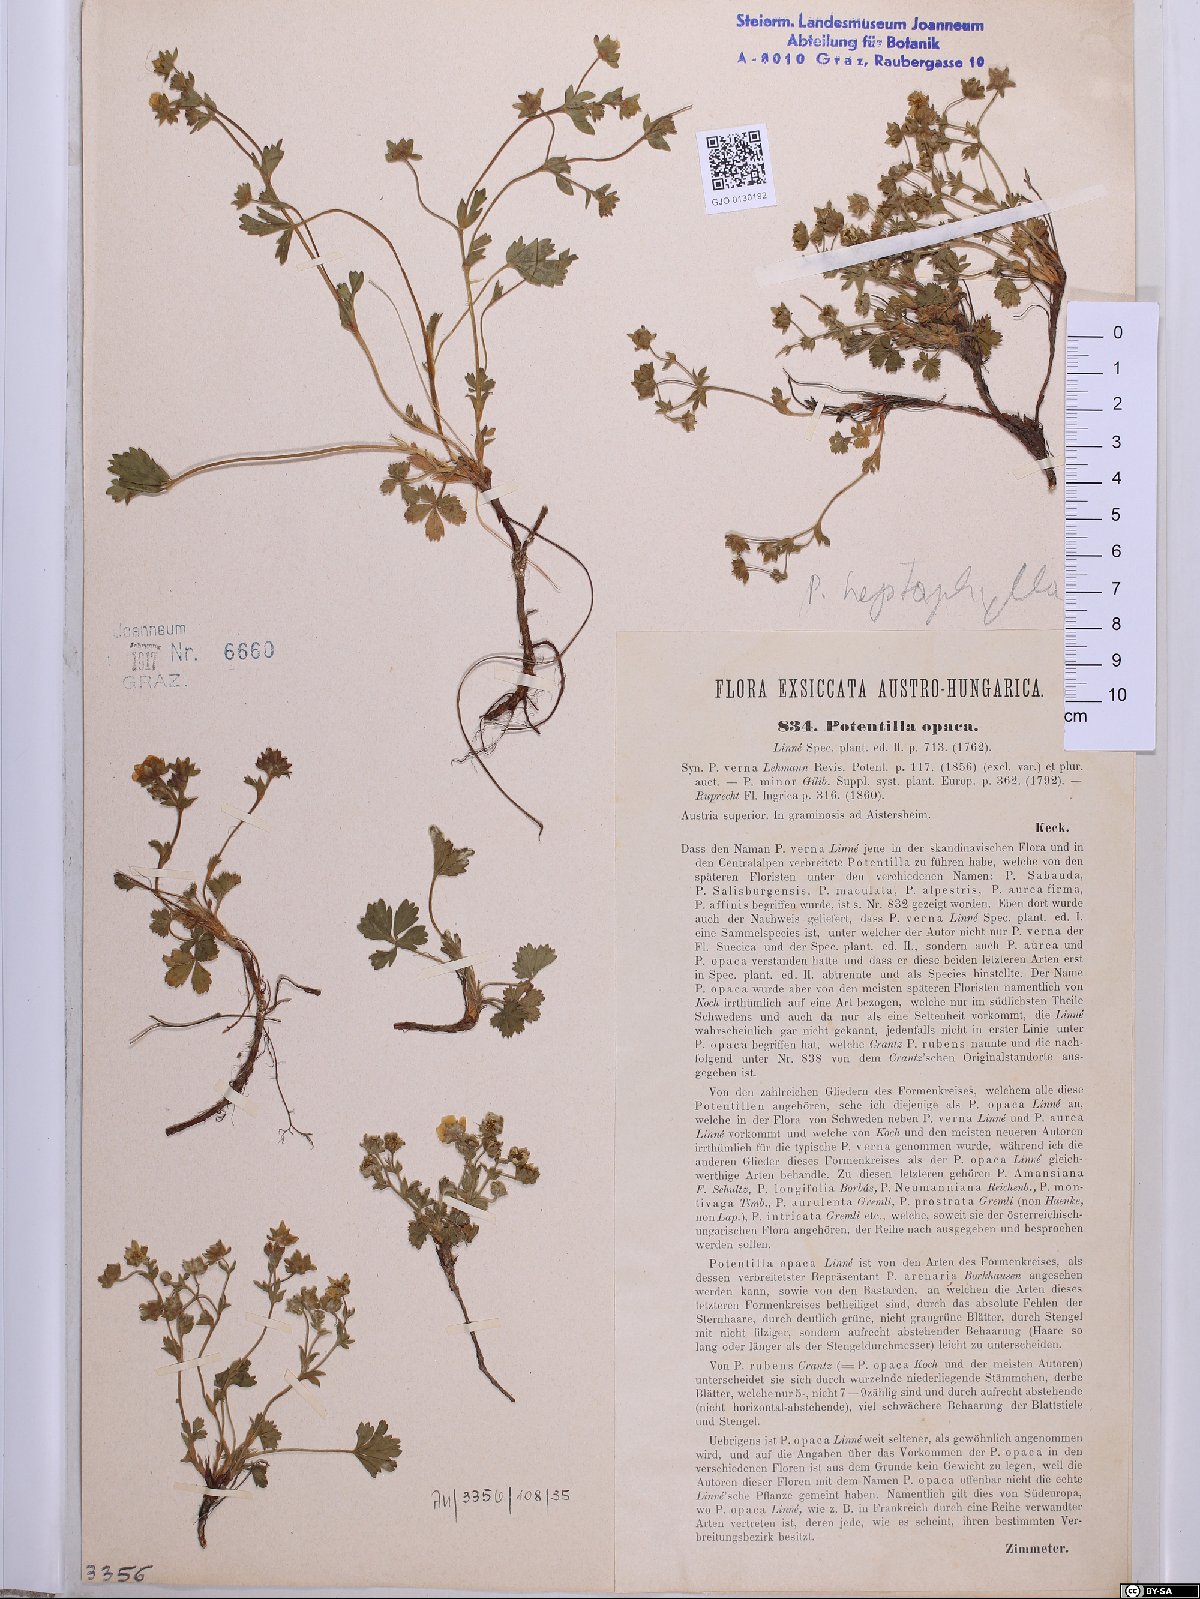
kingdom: Plantae
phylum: Tracheophyta
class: Magnoliopsida
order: Rosales
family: Rosaceae
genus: Potentilla
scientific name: Potentilla
